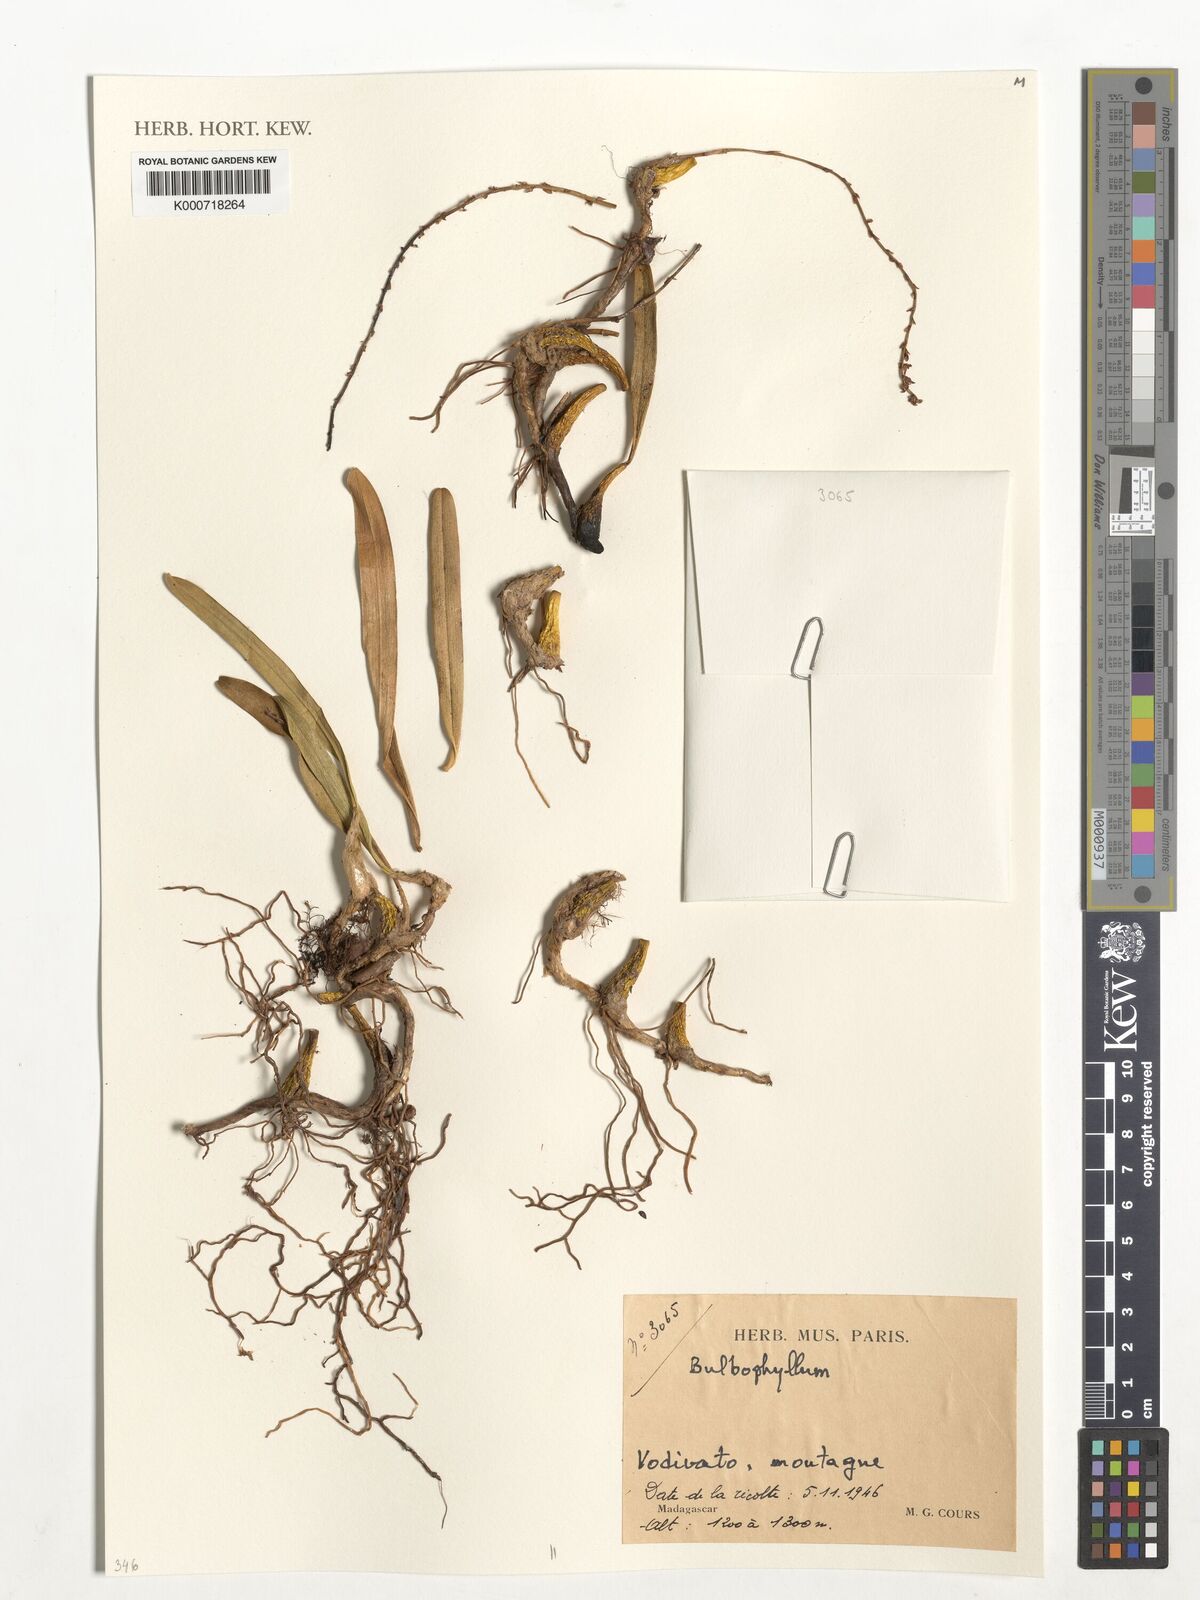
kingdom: Plantae
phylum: Tracheophyta
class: Liliopsida
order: Asparagales
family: Orchidaceae
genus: Bulbophyllum
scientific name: Bulbophyllum
